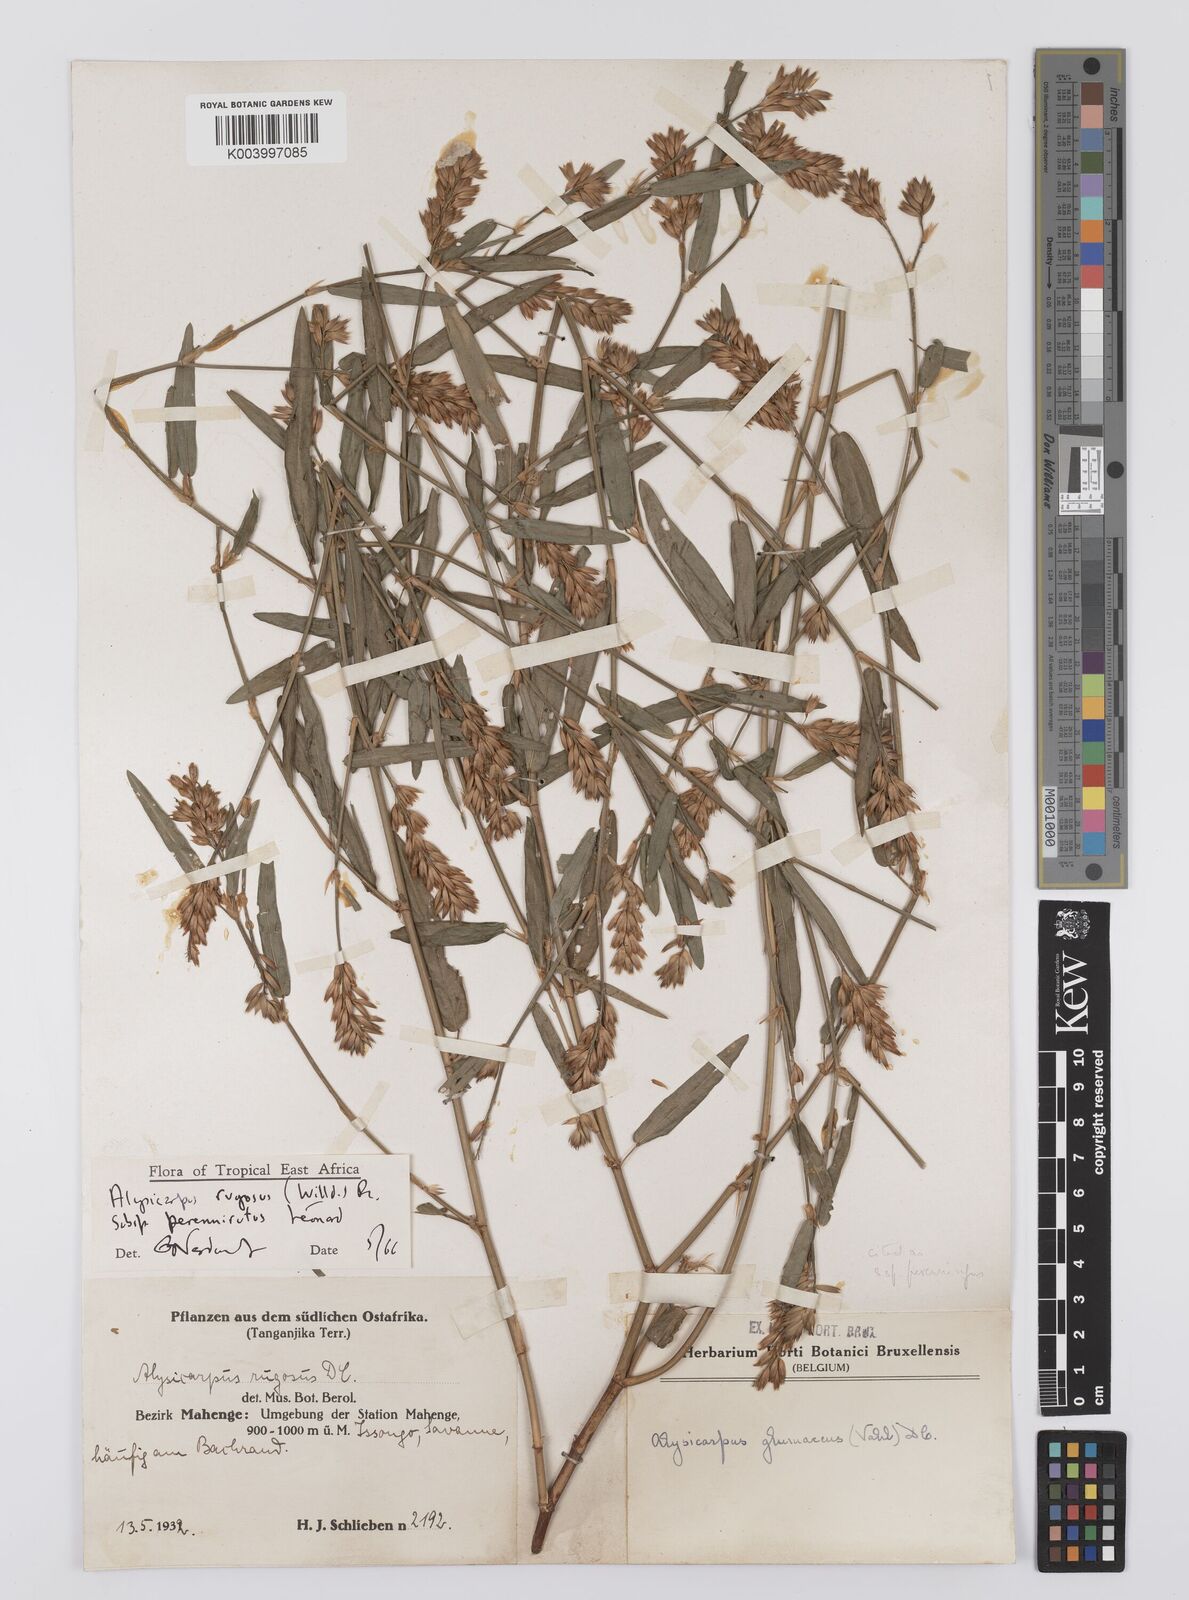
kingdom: Plantae
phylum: Tracheophyta
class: Magnoliopsida
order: Fabales
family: Fabaceae
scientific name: Fabaceae
